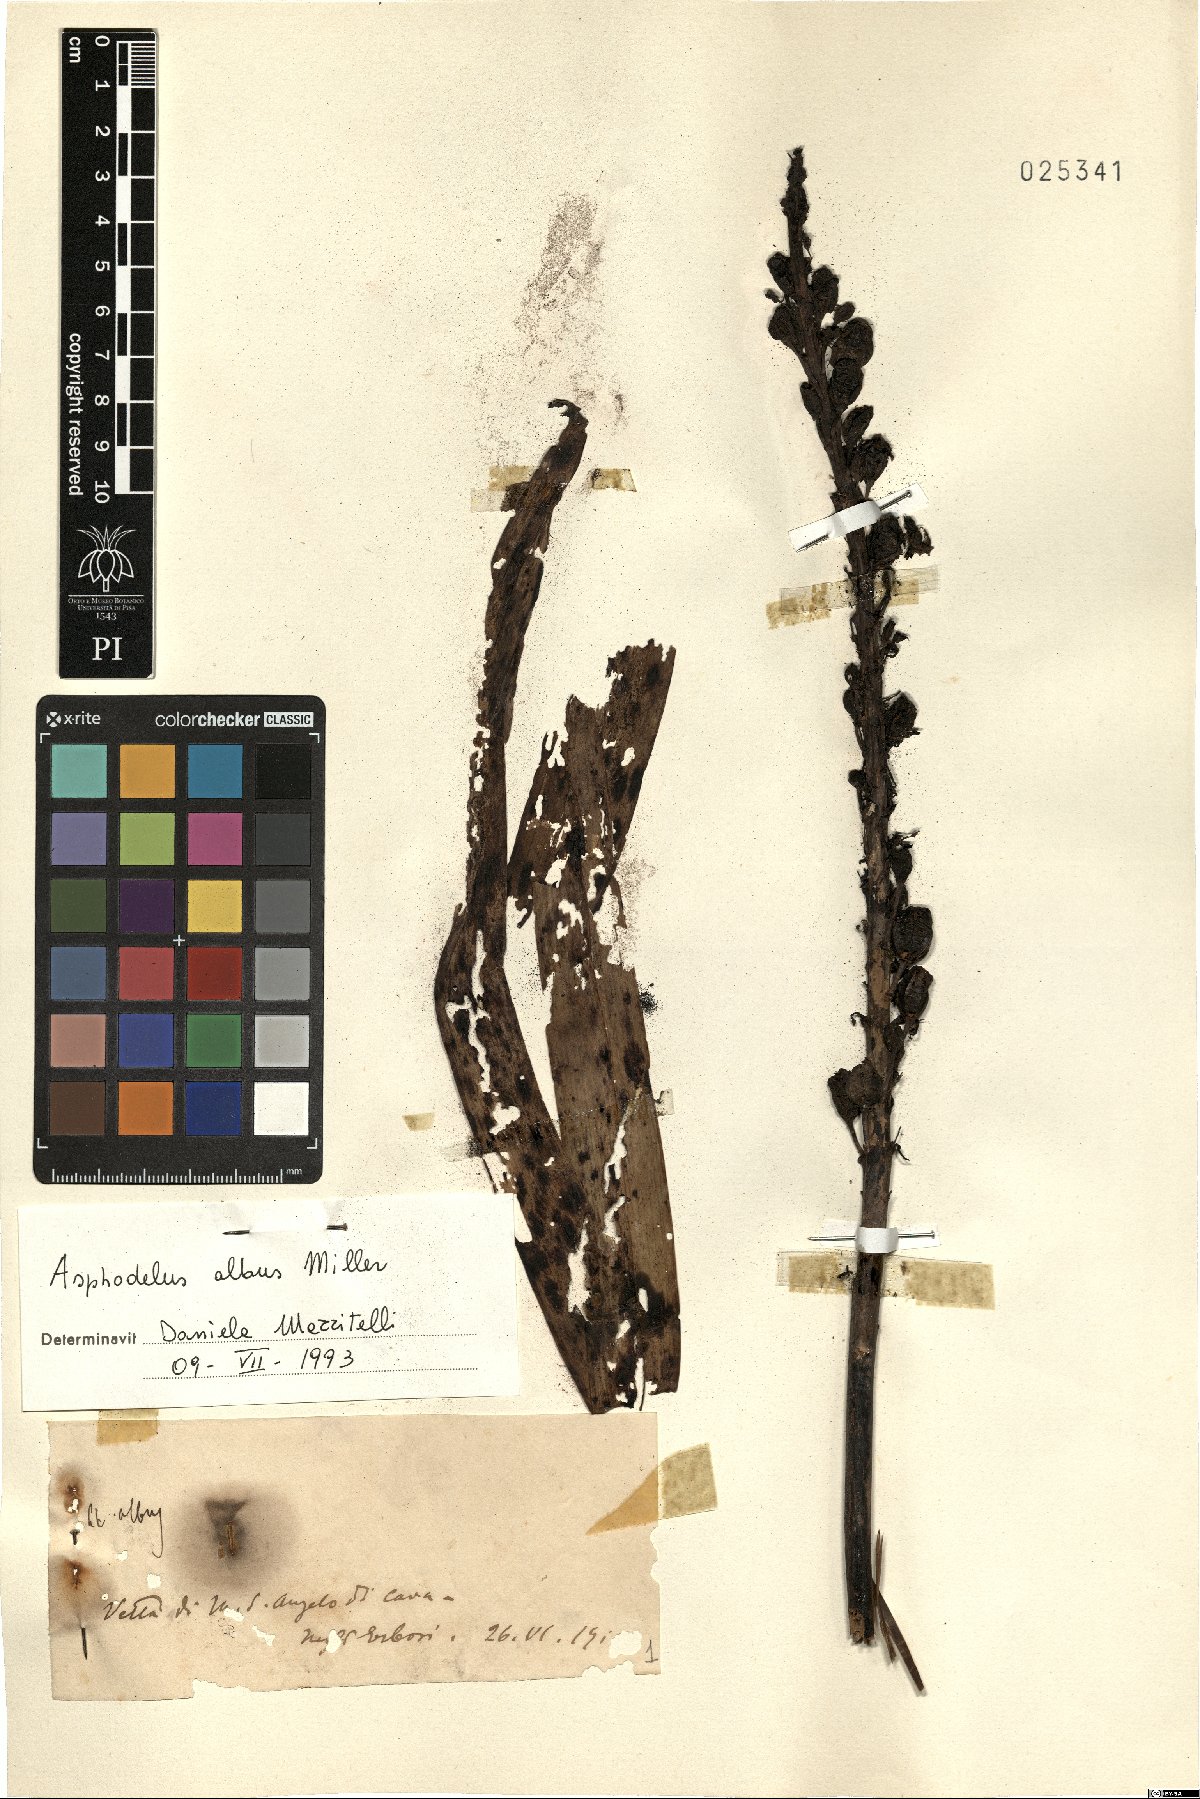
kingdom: Plantae
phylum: Tracheophyta
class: Liliopsida
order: Asparagales
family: Asphodelaceae
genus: Asphodelus
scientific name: Asphodelus albus
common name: White asphodel
